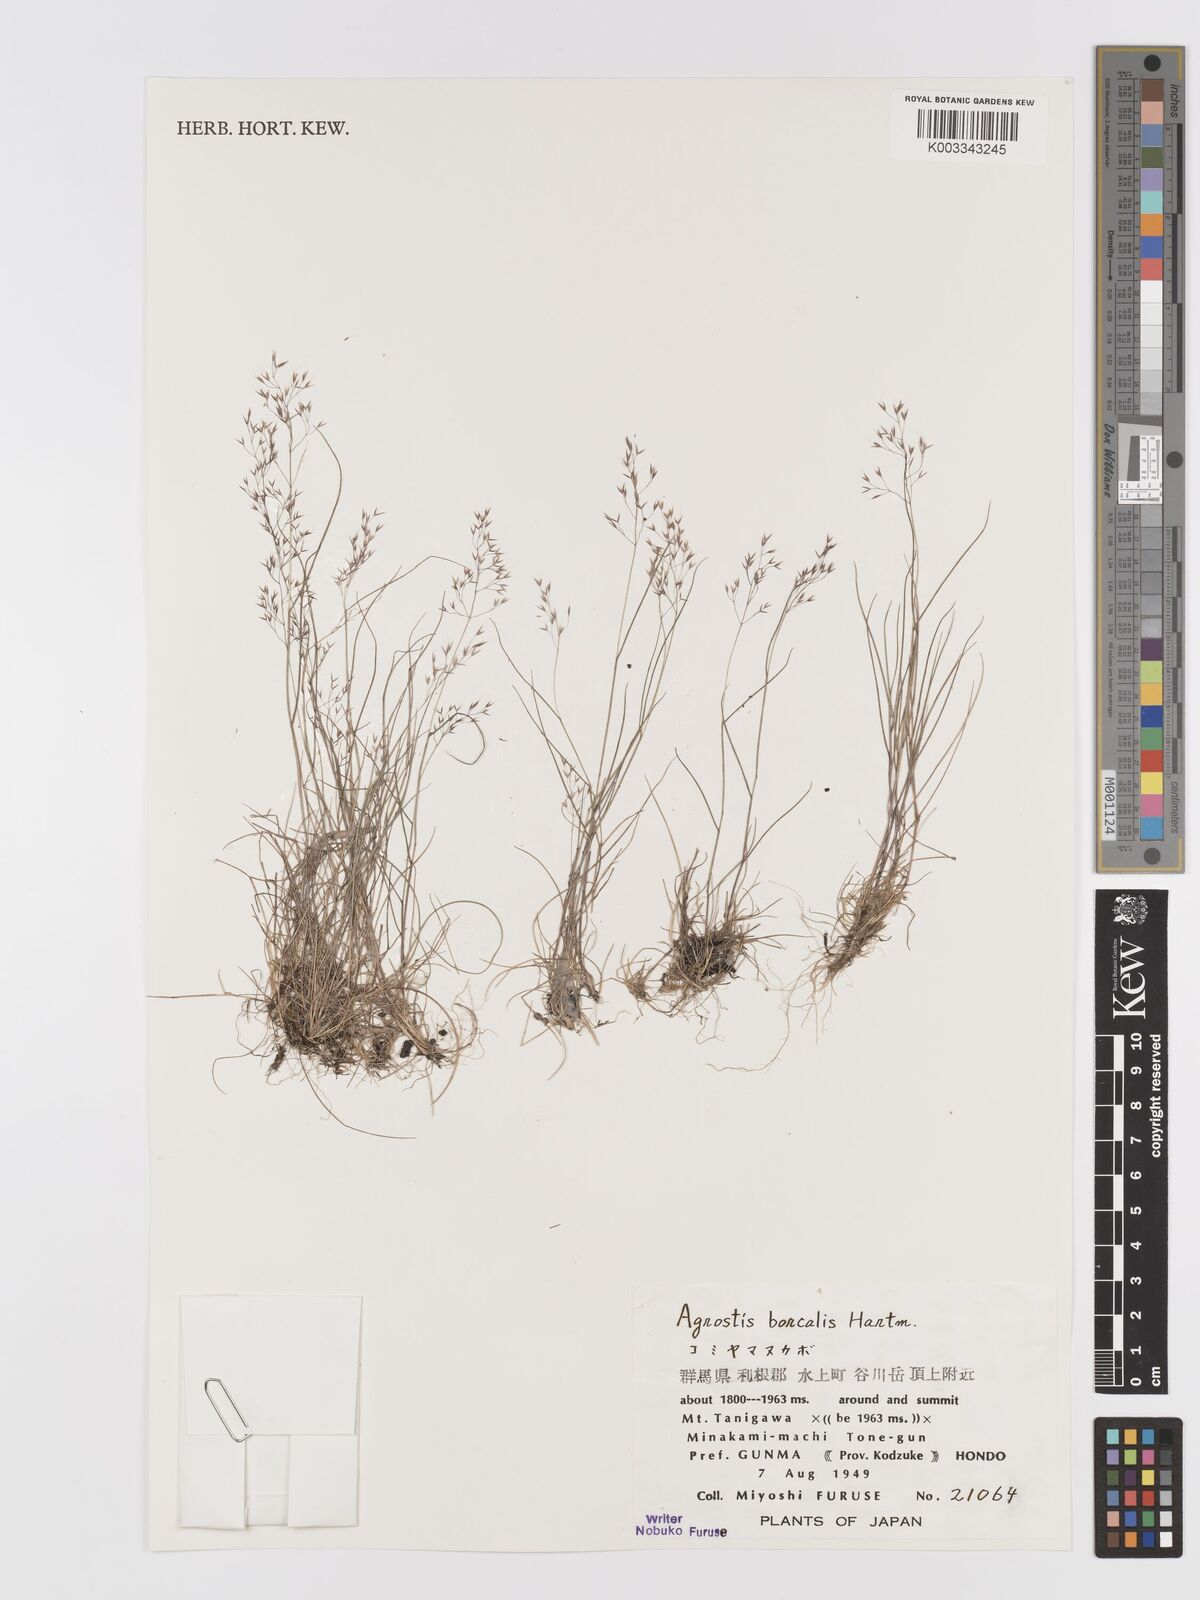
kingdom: Plantae
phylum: Tracheophyta
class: Liliopsida
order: Poales
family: Poaceae
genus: Agrostis
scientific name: Agrostis mertensii
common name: Northern bent
